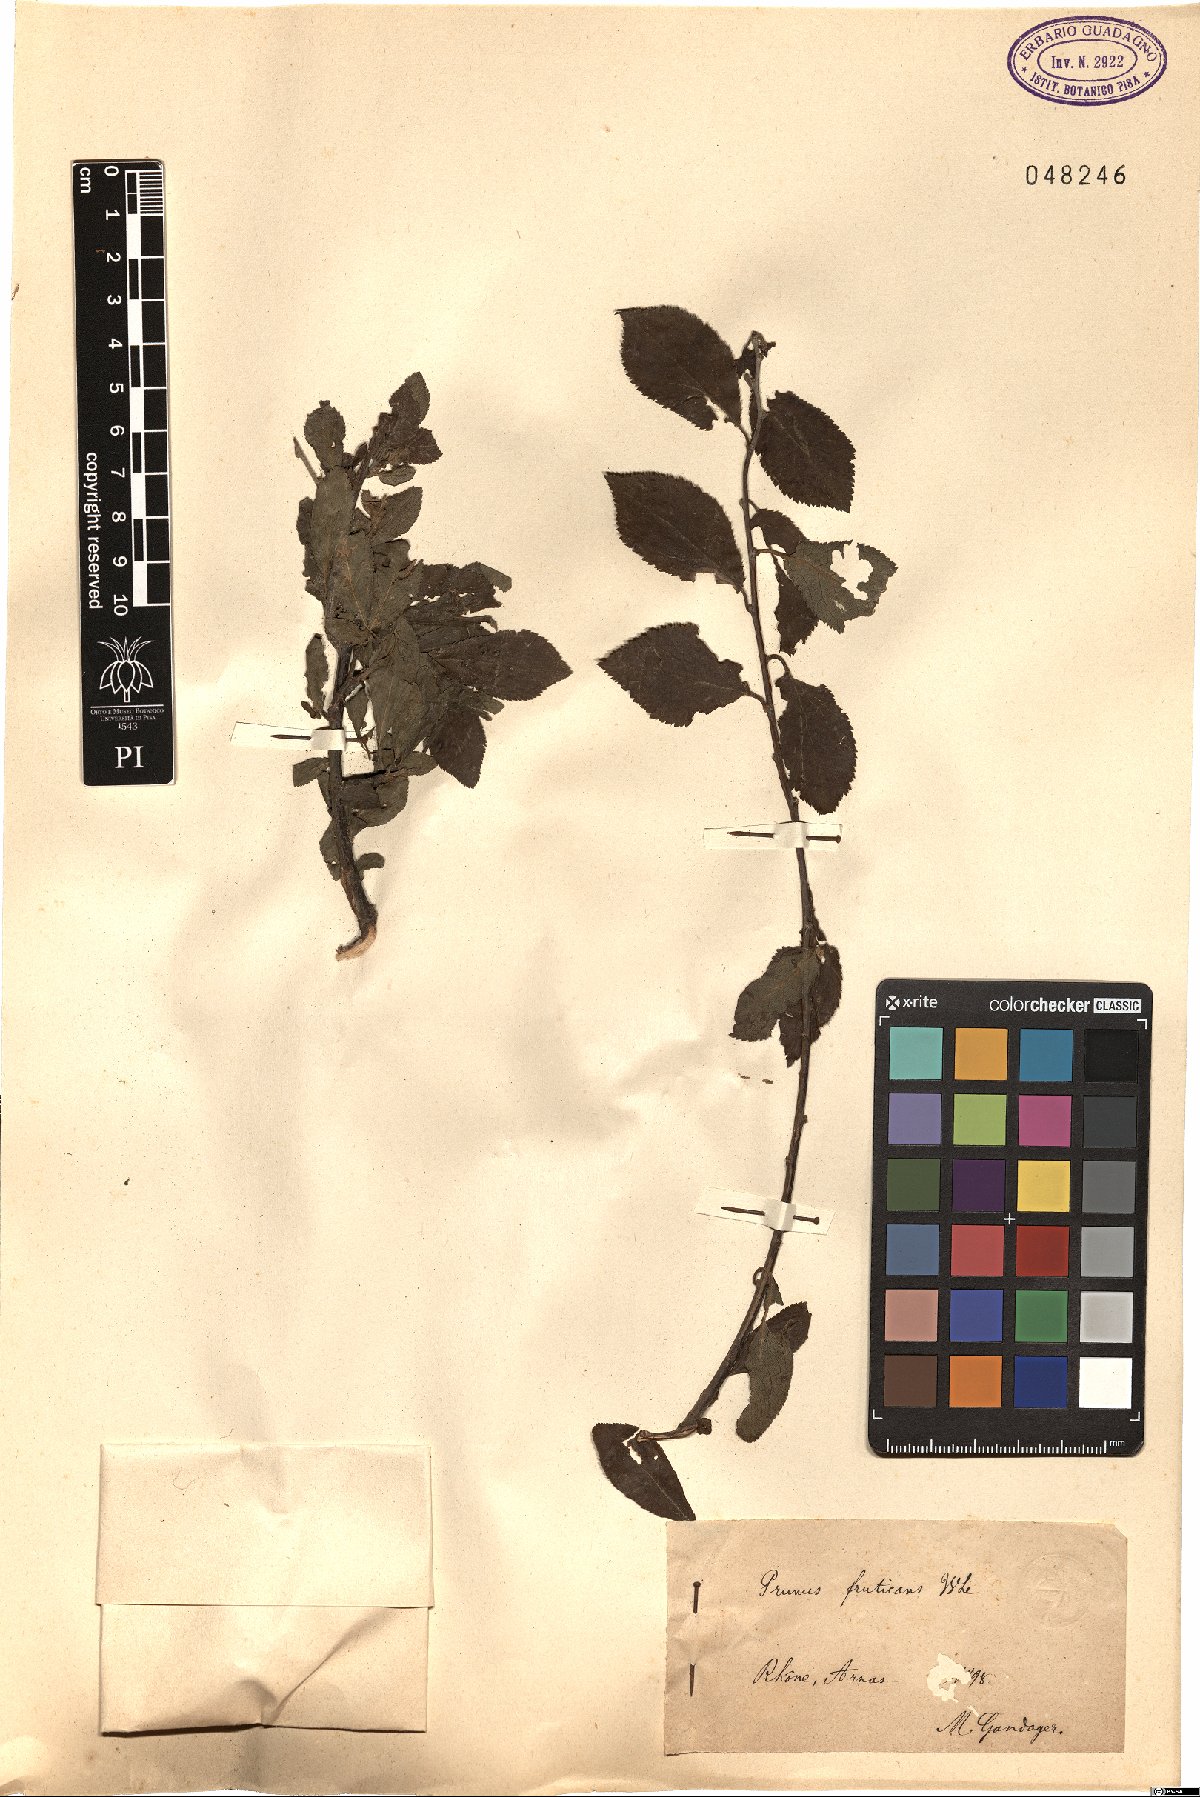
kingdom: Plantae
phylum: Tracheophyta
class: Magnoliopsida
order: Rosales
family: Rosaceae
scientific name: Rosaceae
